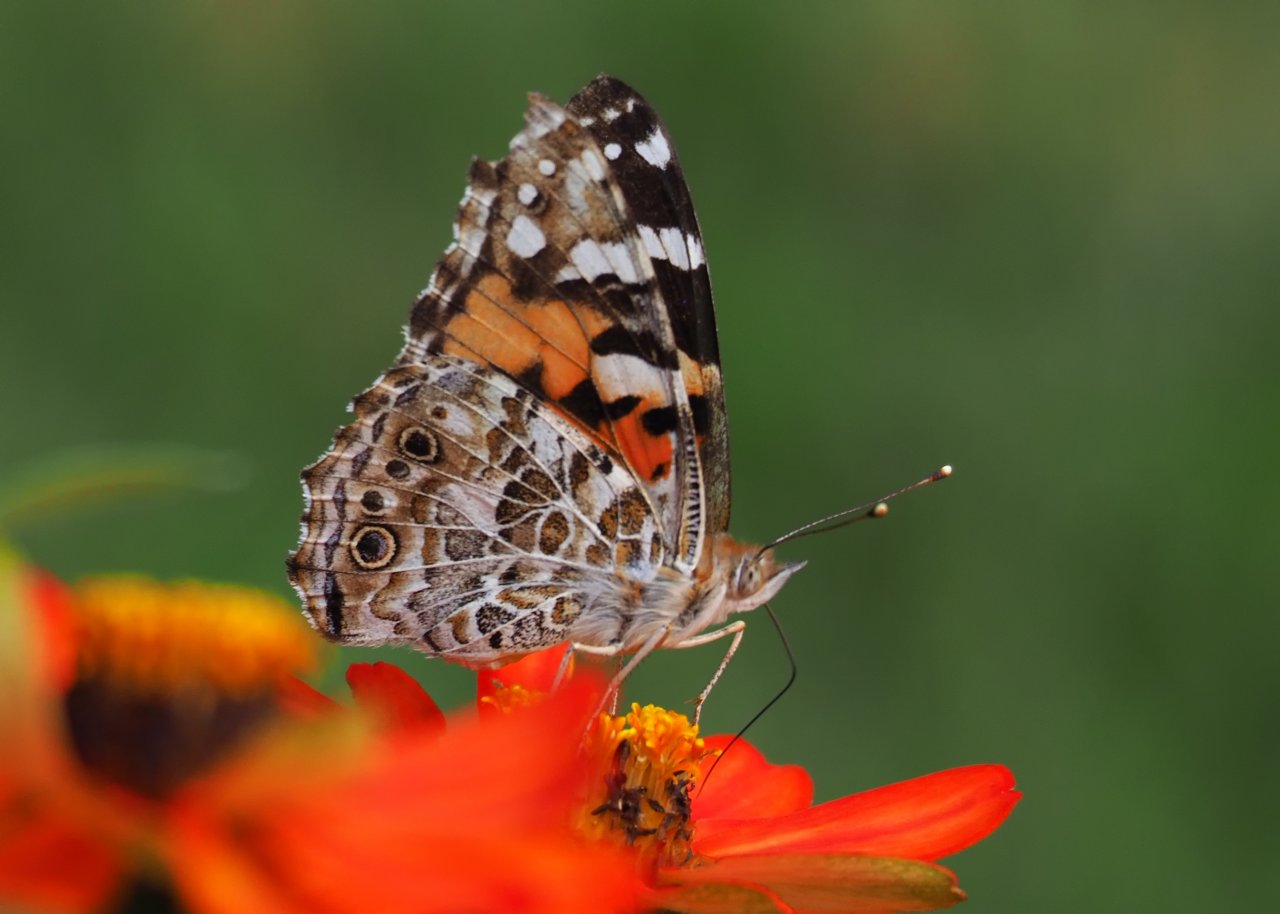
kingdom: Animalia
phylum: Arthropoda
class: Insecta
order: Lepidoptera
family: Nymphalidae
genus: Vanessa
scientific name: Vanessa cardui
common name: Painted Lady
